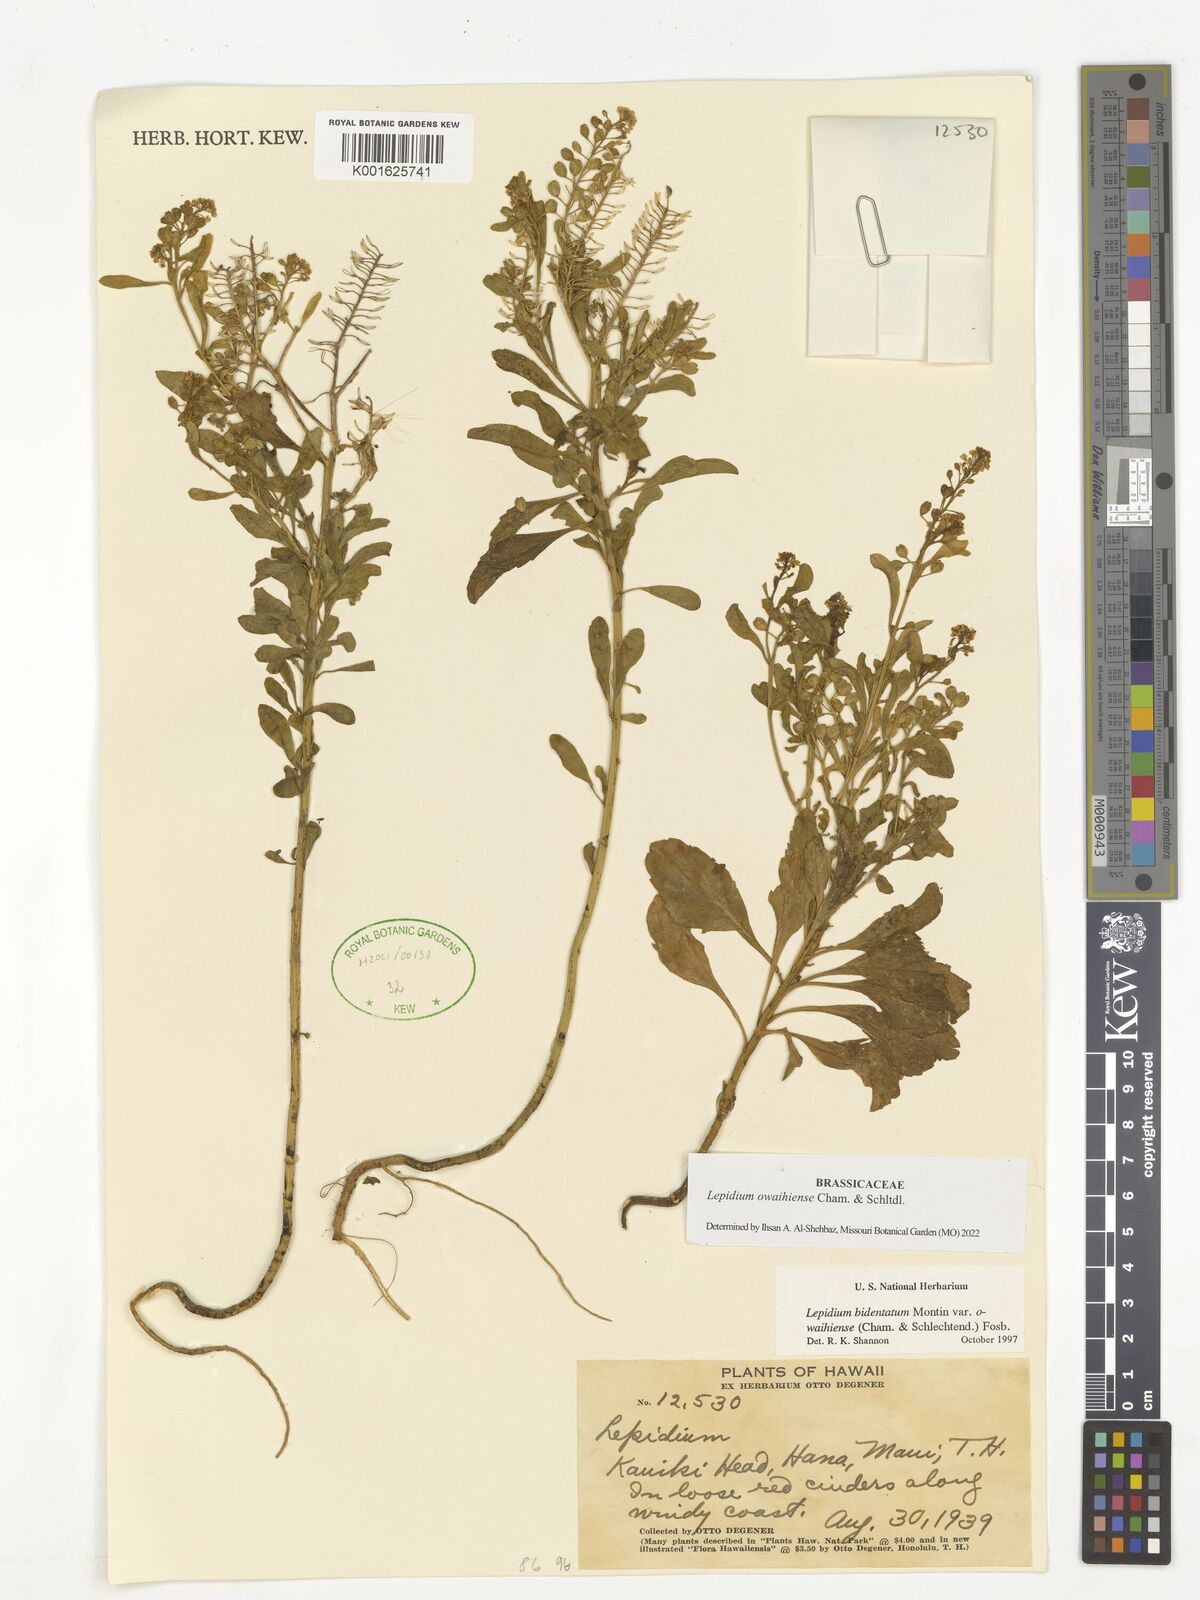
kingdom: Plantae
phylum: Tracheophyta
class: Magnoliopsida
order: Brassicales
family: Brassicaceae
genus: Lepidium
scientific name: Lepidium owaihiense
